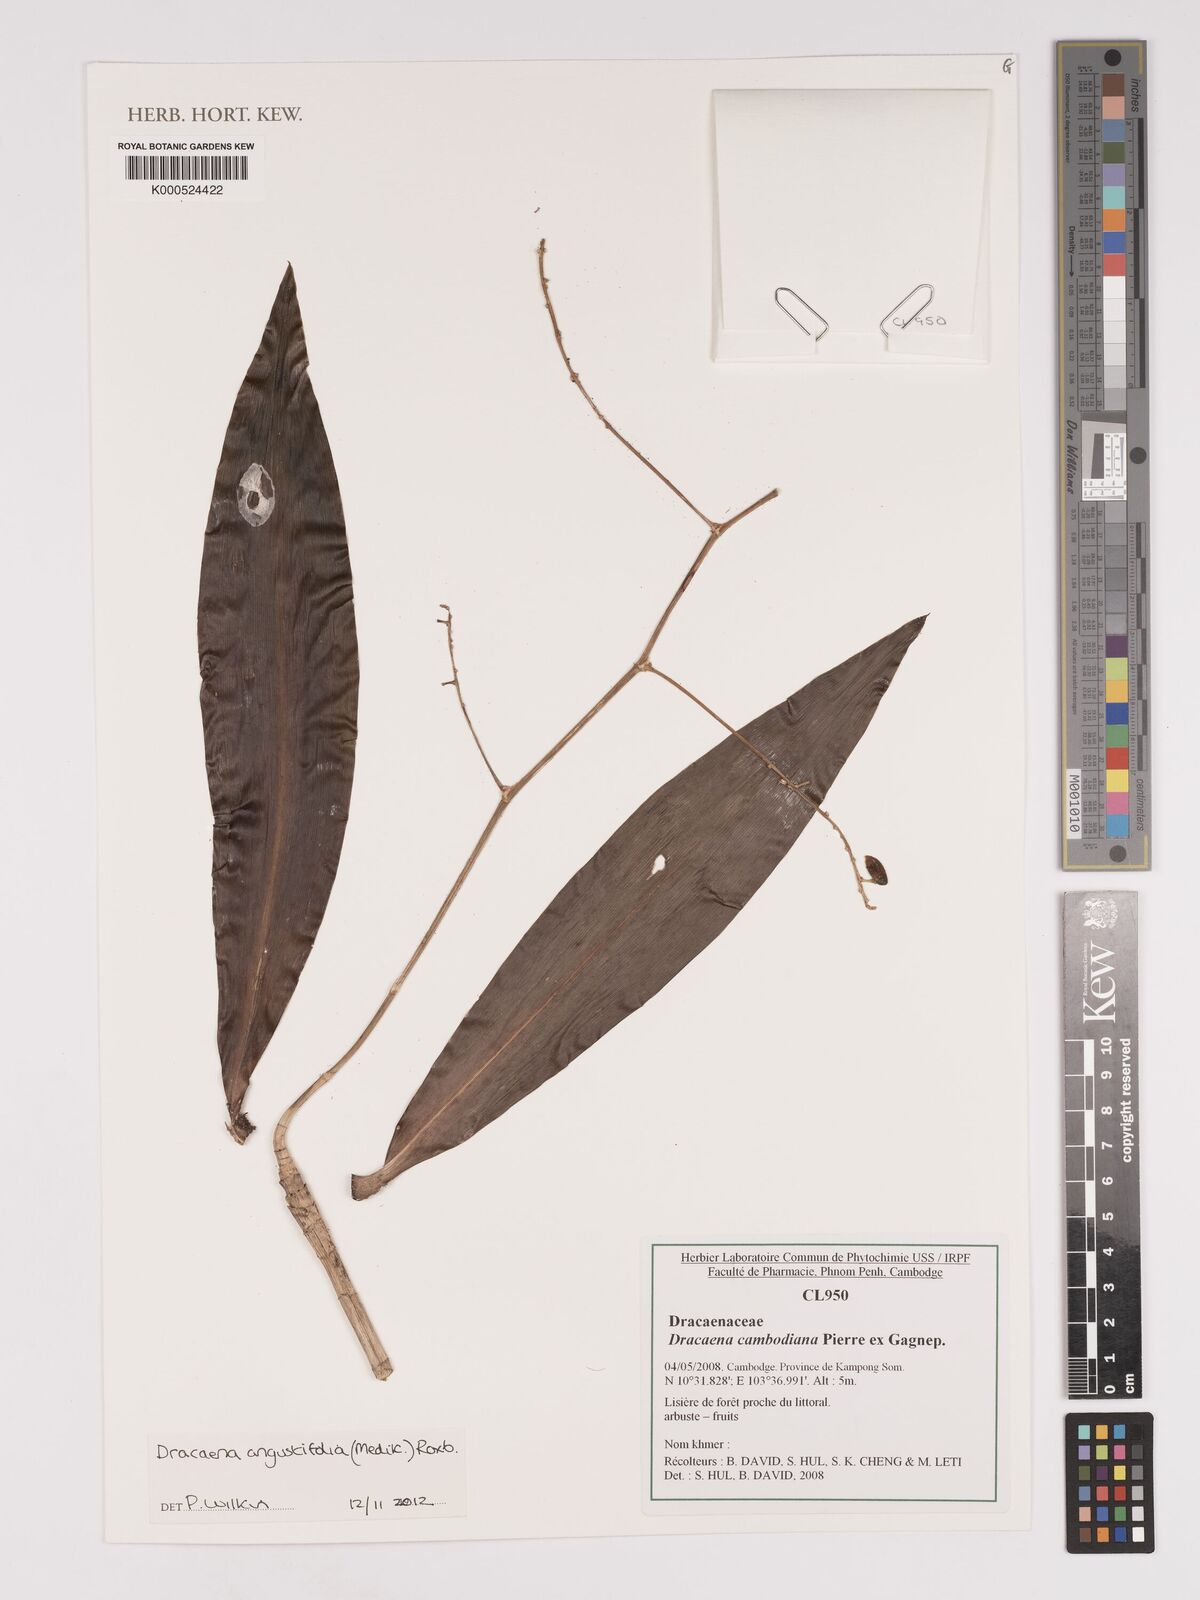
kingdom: Plantae
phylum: Tracheophyta
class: Liliopsida
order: Asparagales
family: Asparagaceae
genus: Dracaena
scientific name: Dracaena angustifolia
